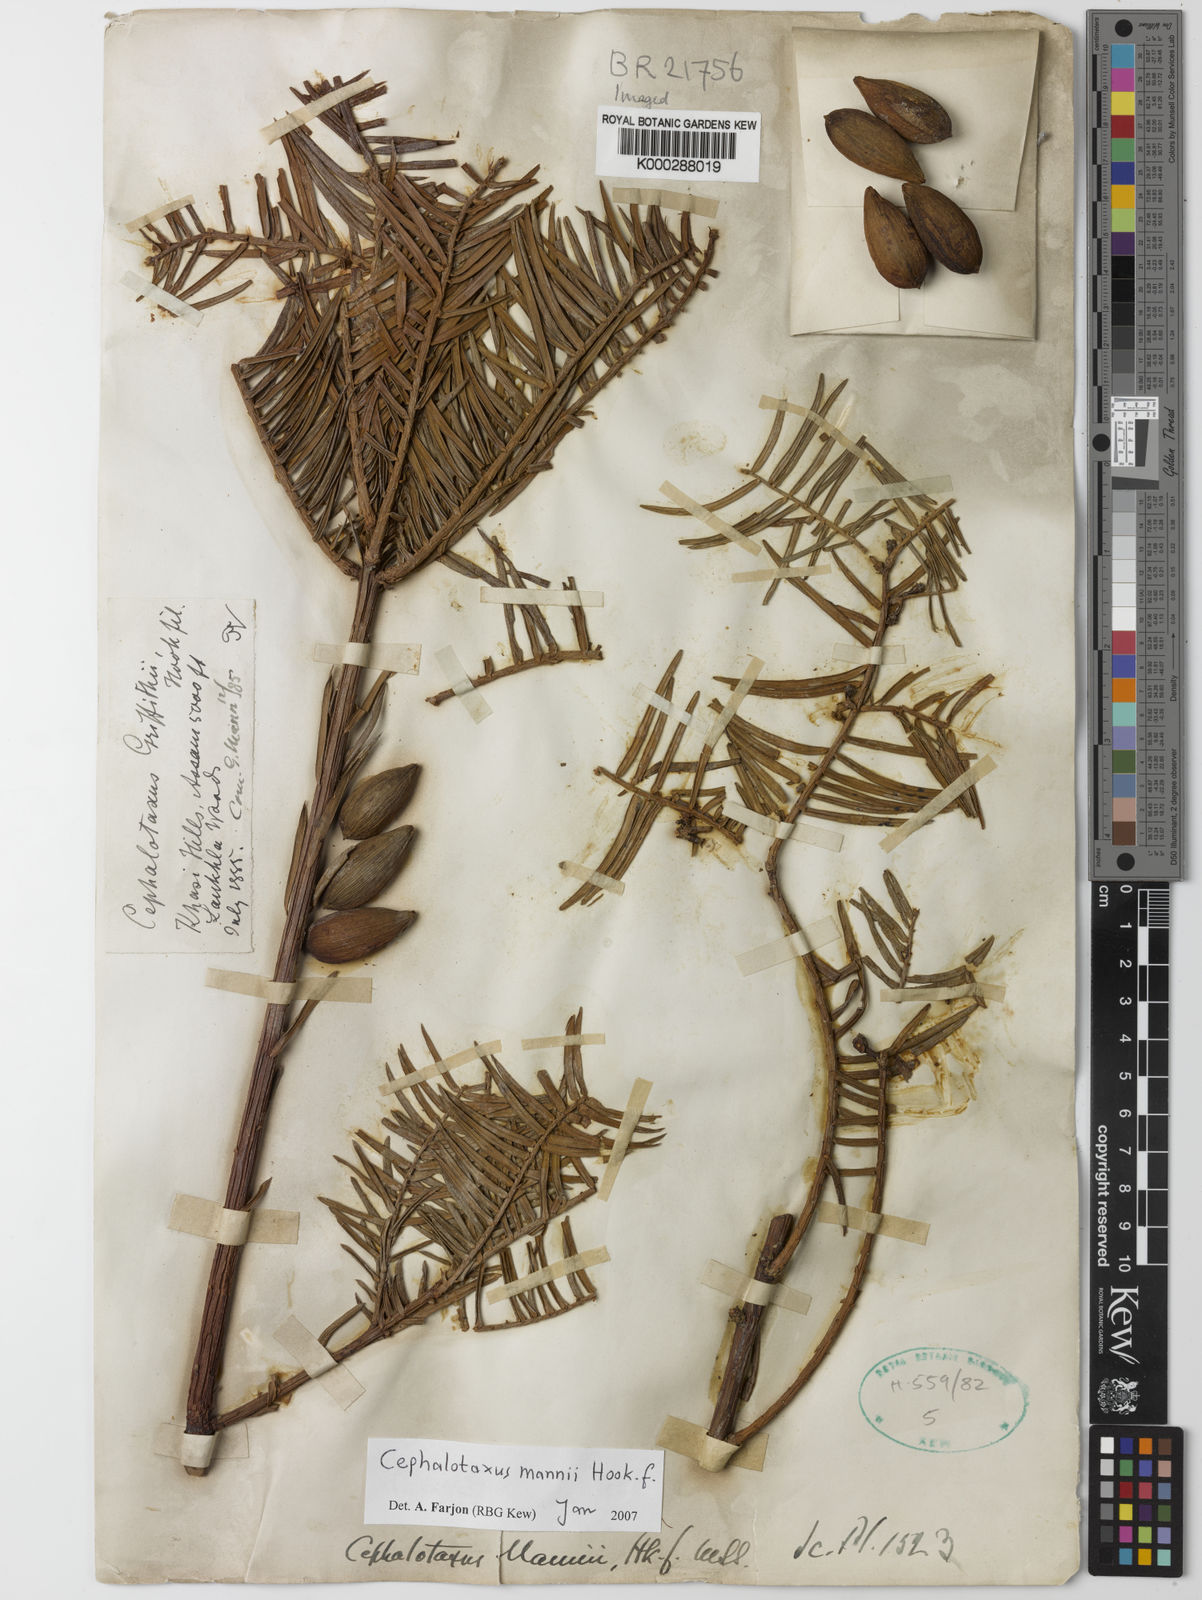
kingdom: Plantae
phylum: Tracheophyta
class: Pinopsida
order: Pinales
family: Cephalotaxaceae
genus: Cephalotaxus
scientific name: Cephalotaxus mannii
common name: Mann's yew plum
